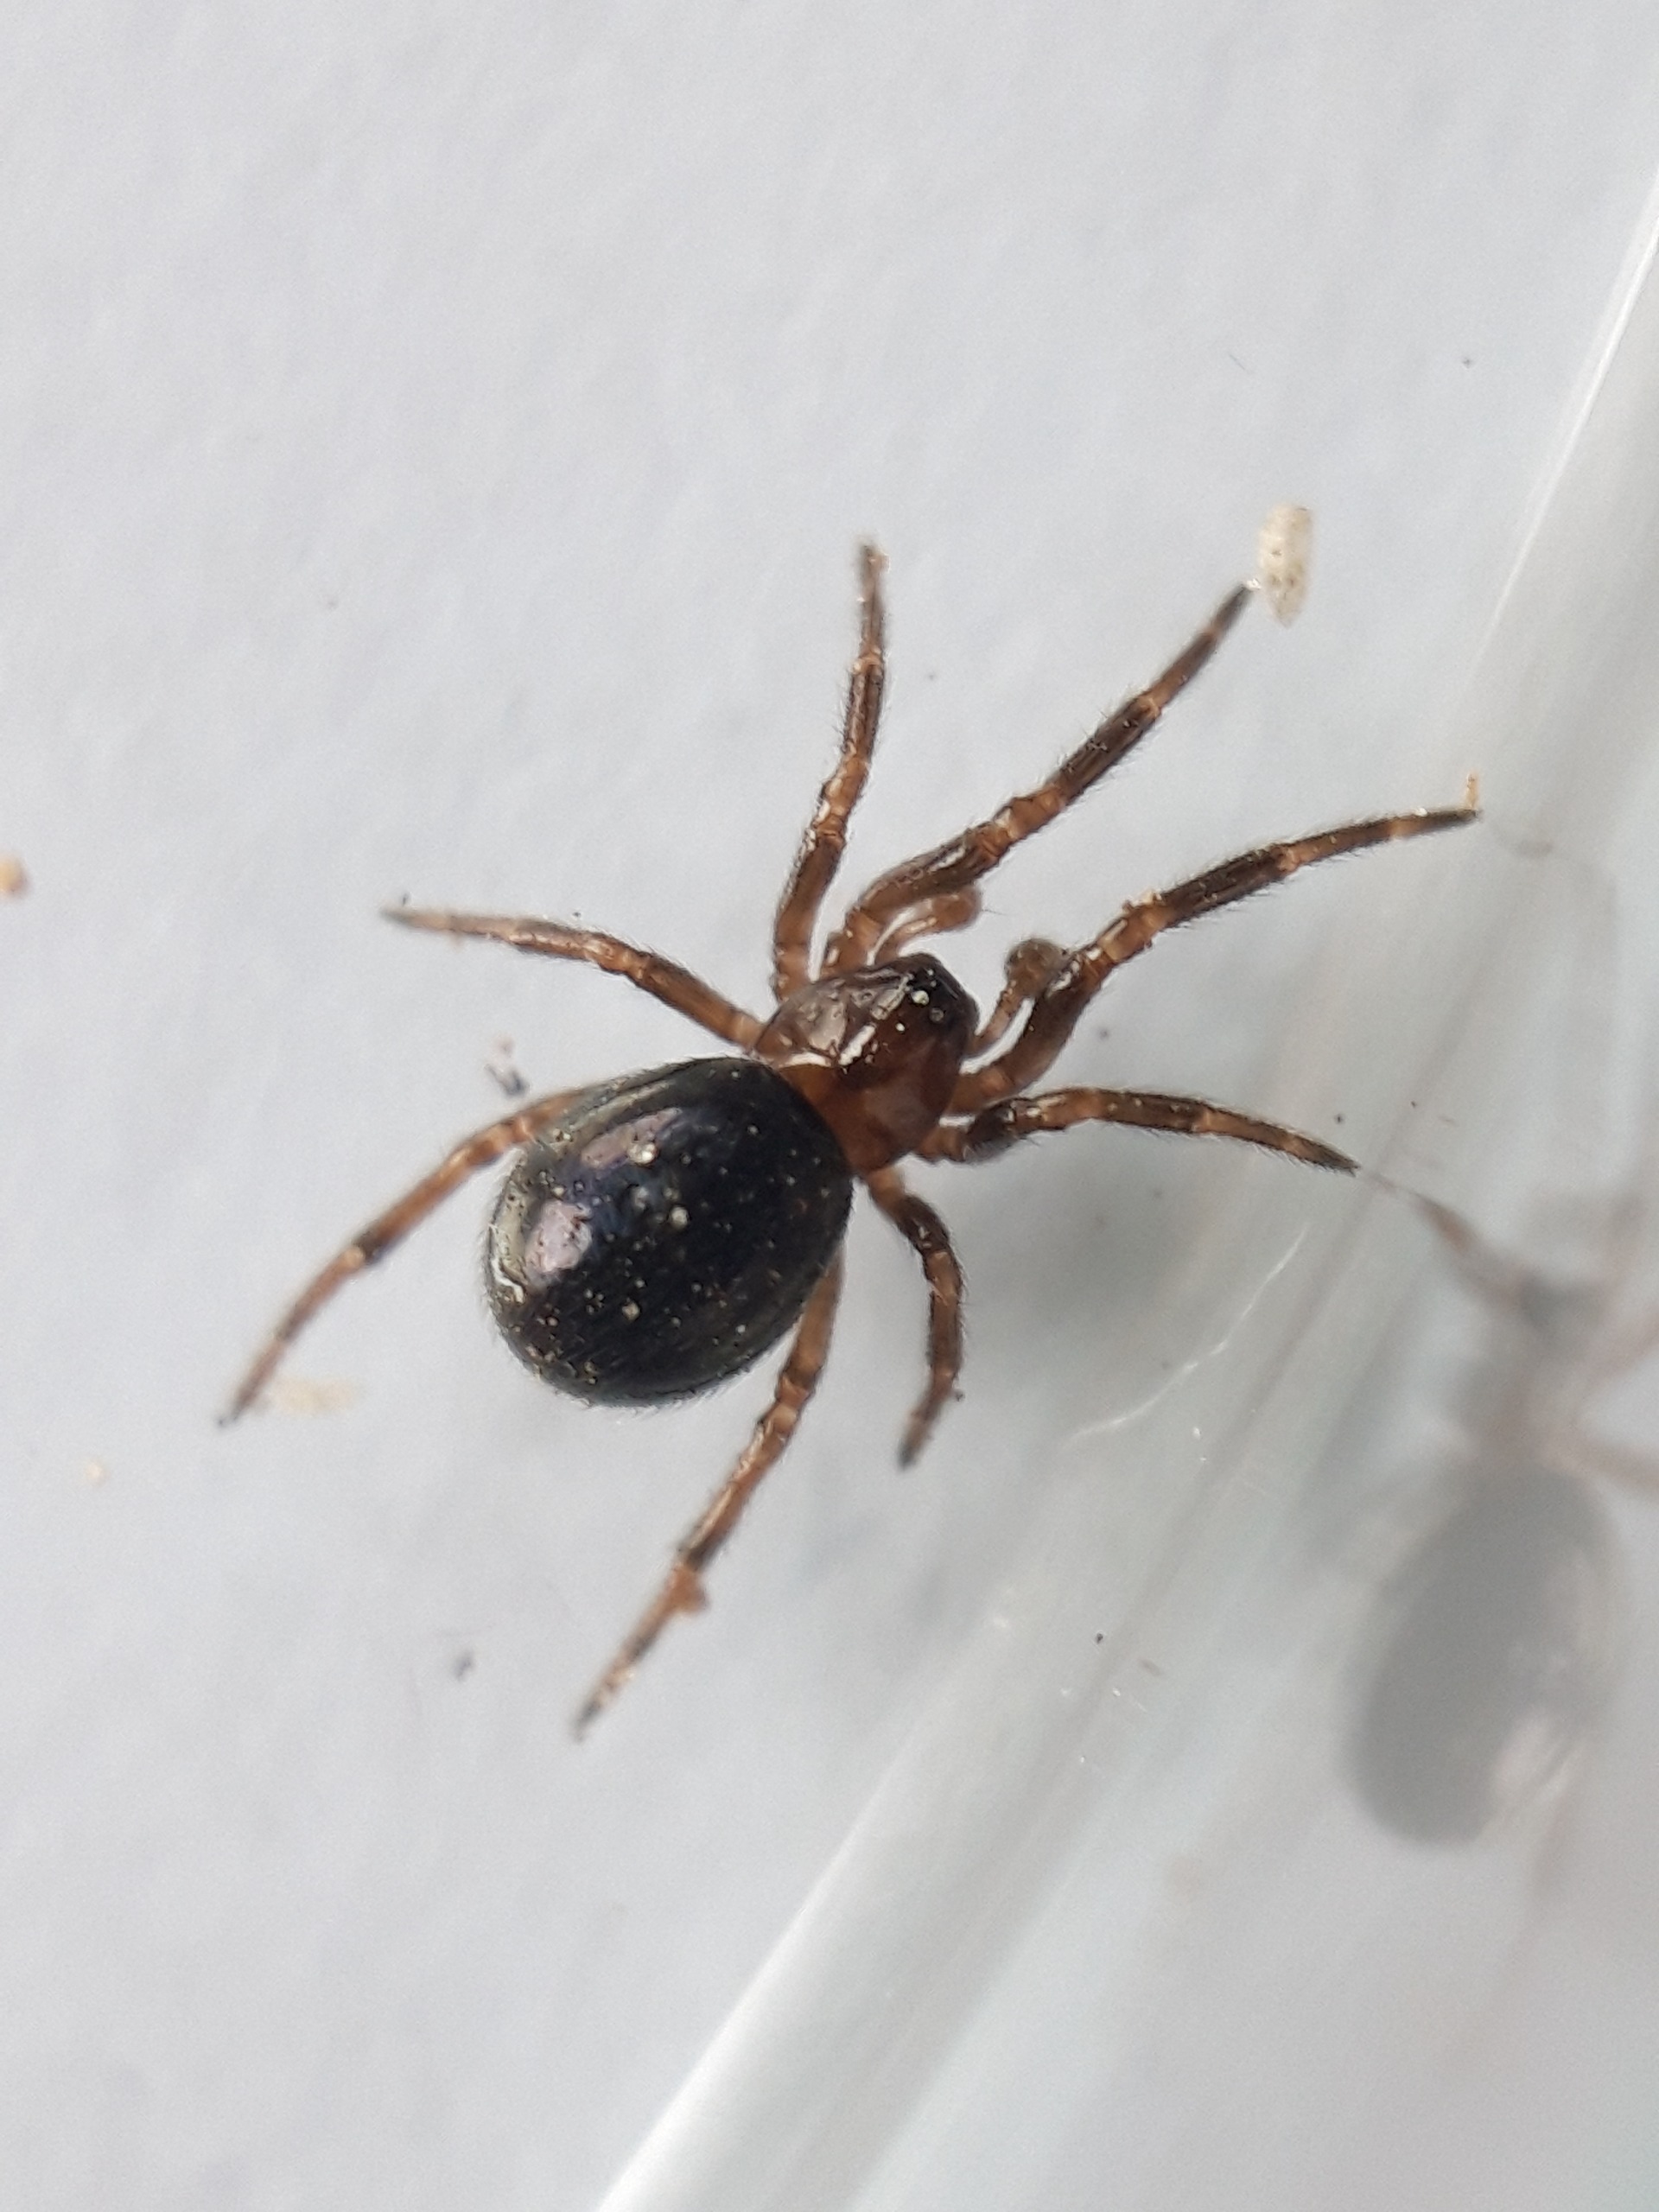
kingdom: Animalia
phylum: Arthropoda
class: Arachnida
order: Araneae
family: Theridiidae
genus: Enoplognatha
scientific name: Enoplognatha thoracica
